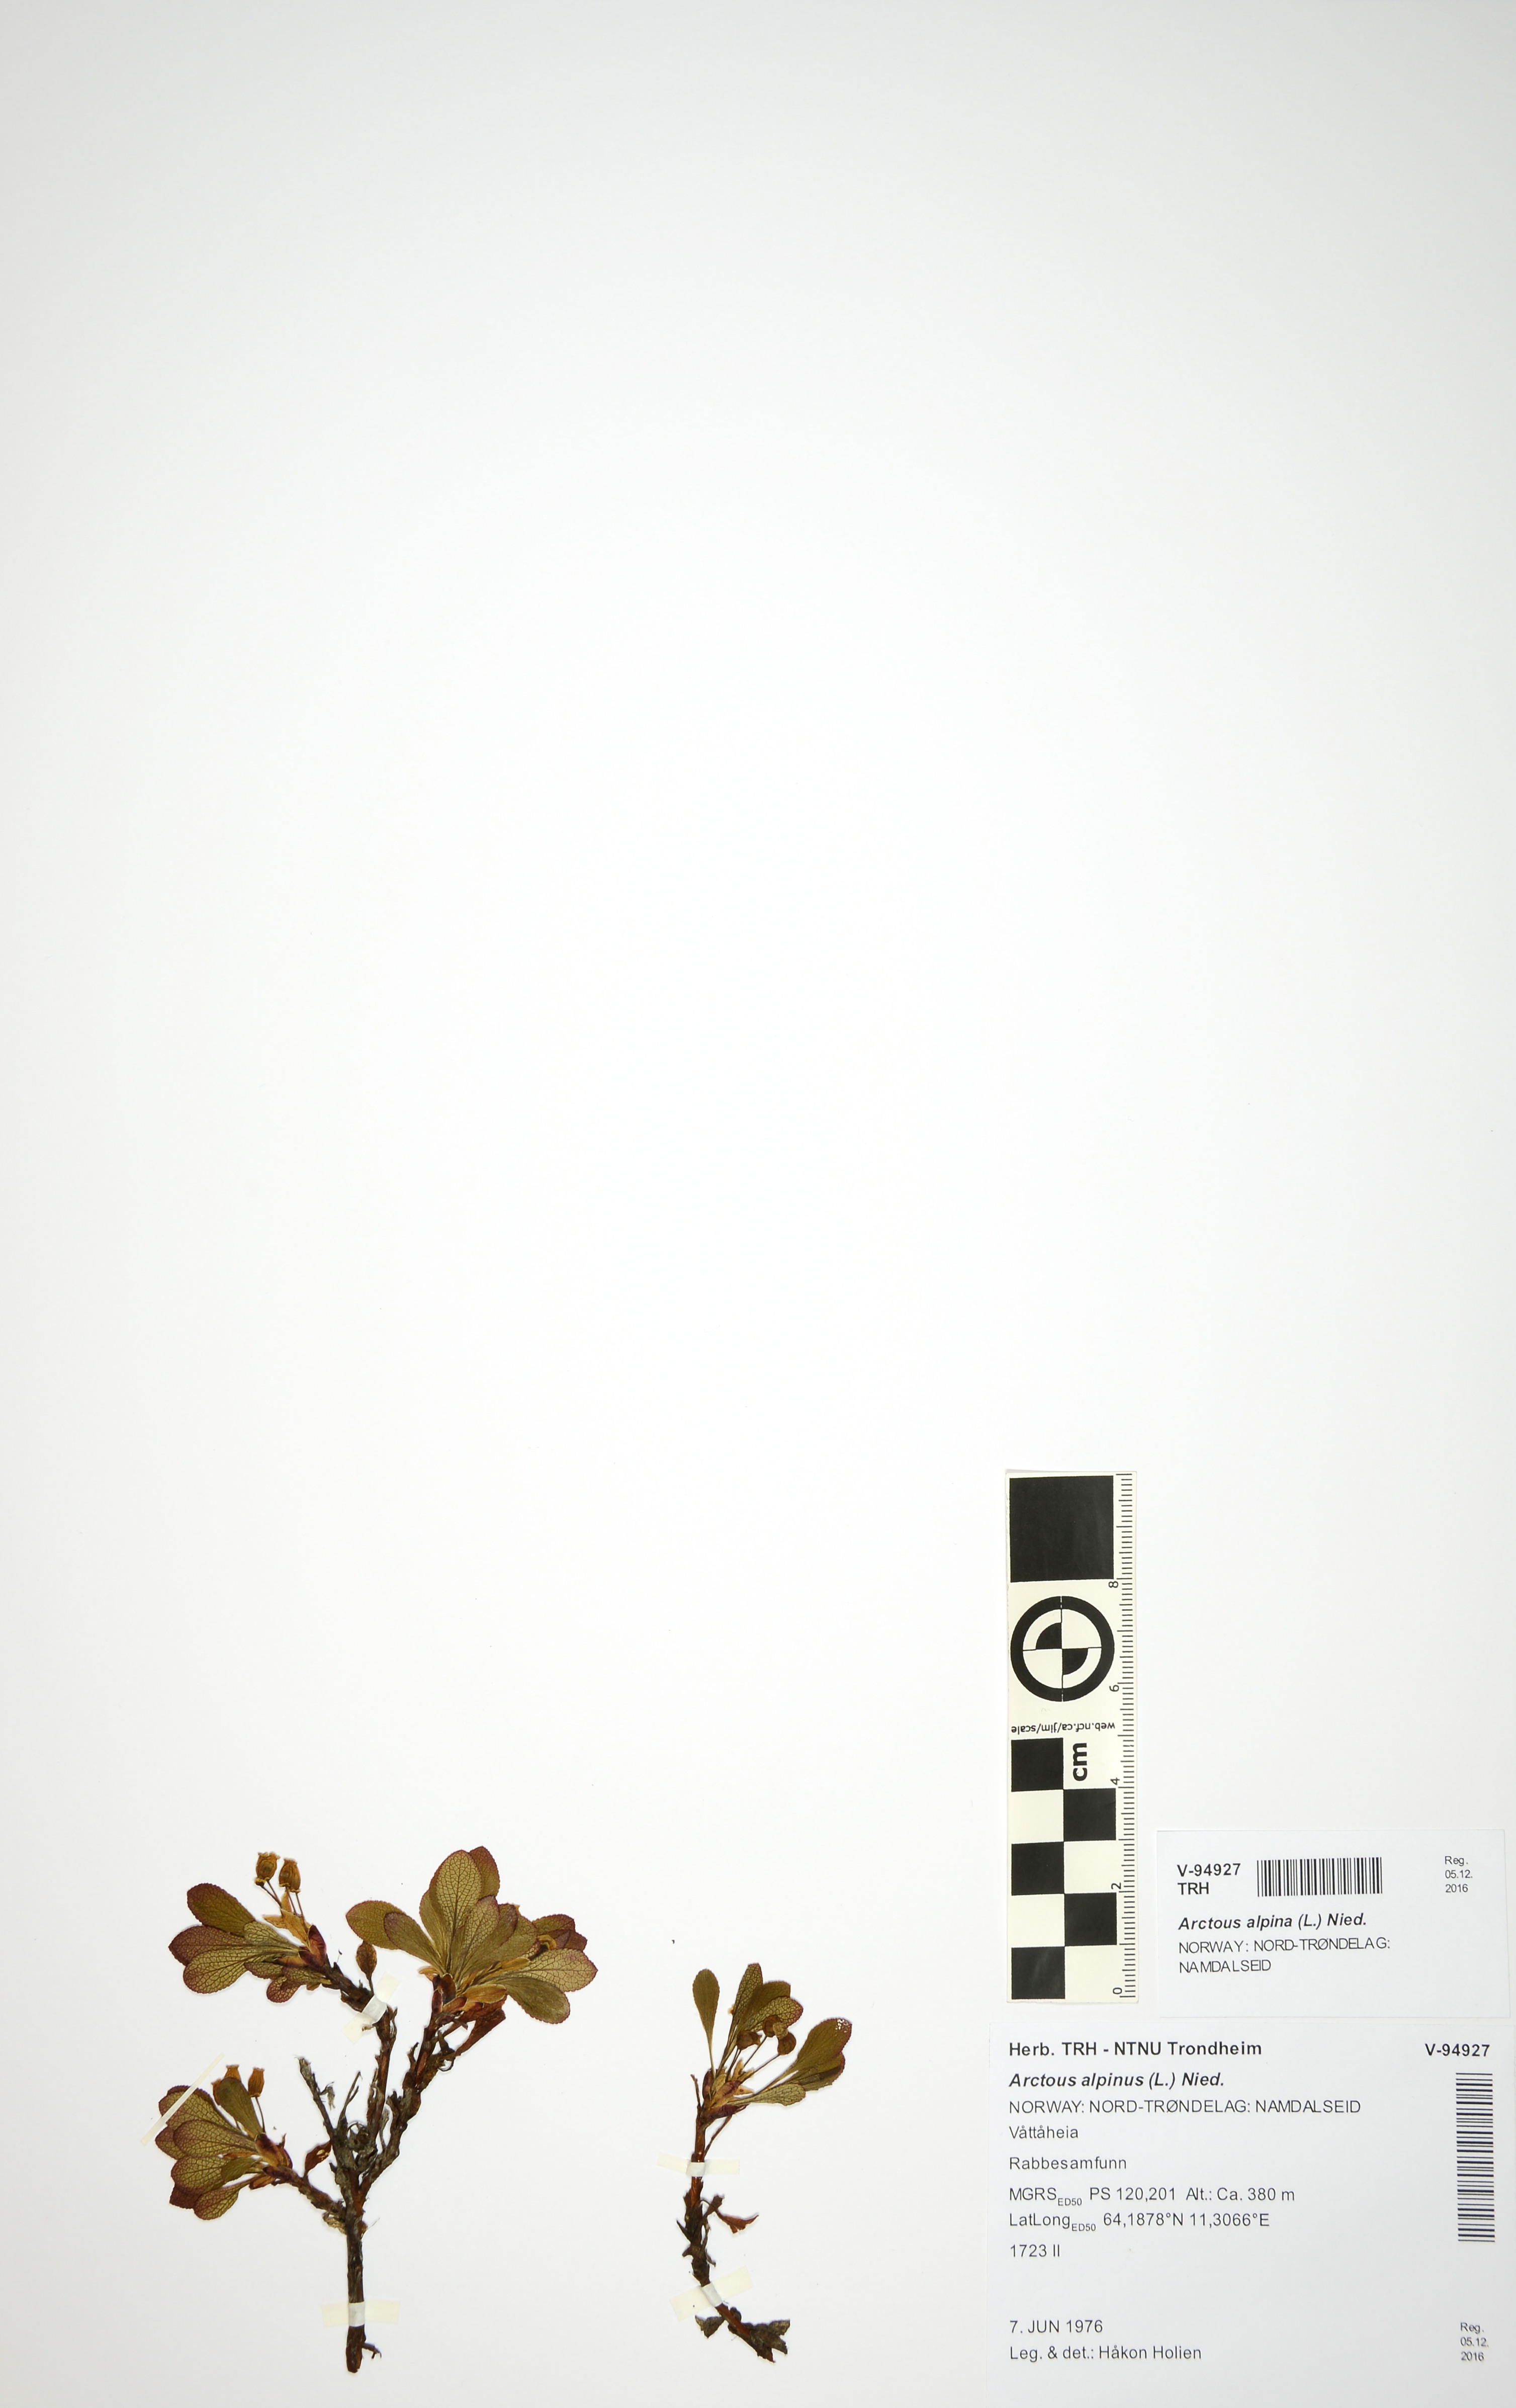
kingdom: Plantae
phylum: Tracheophyta
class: Magnoliopsida
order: Ericales
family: Ericaceae
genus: Arctostaphylos
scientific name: Arctostaphylos alpinus
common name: Alpine bearberry
